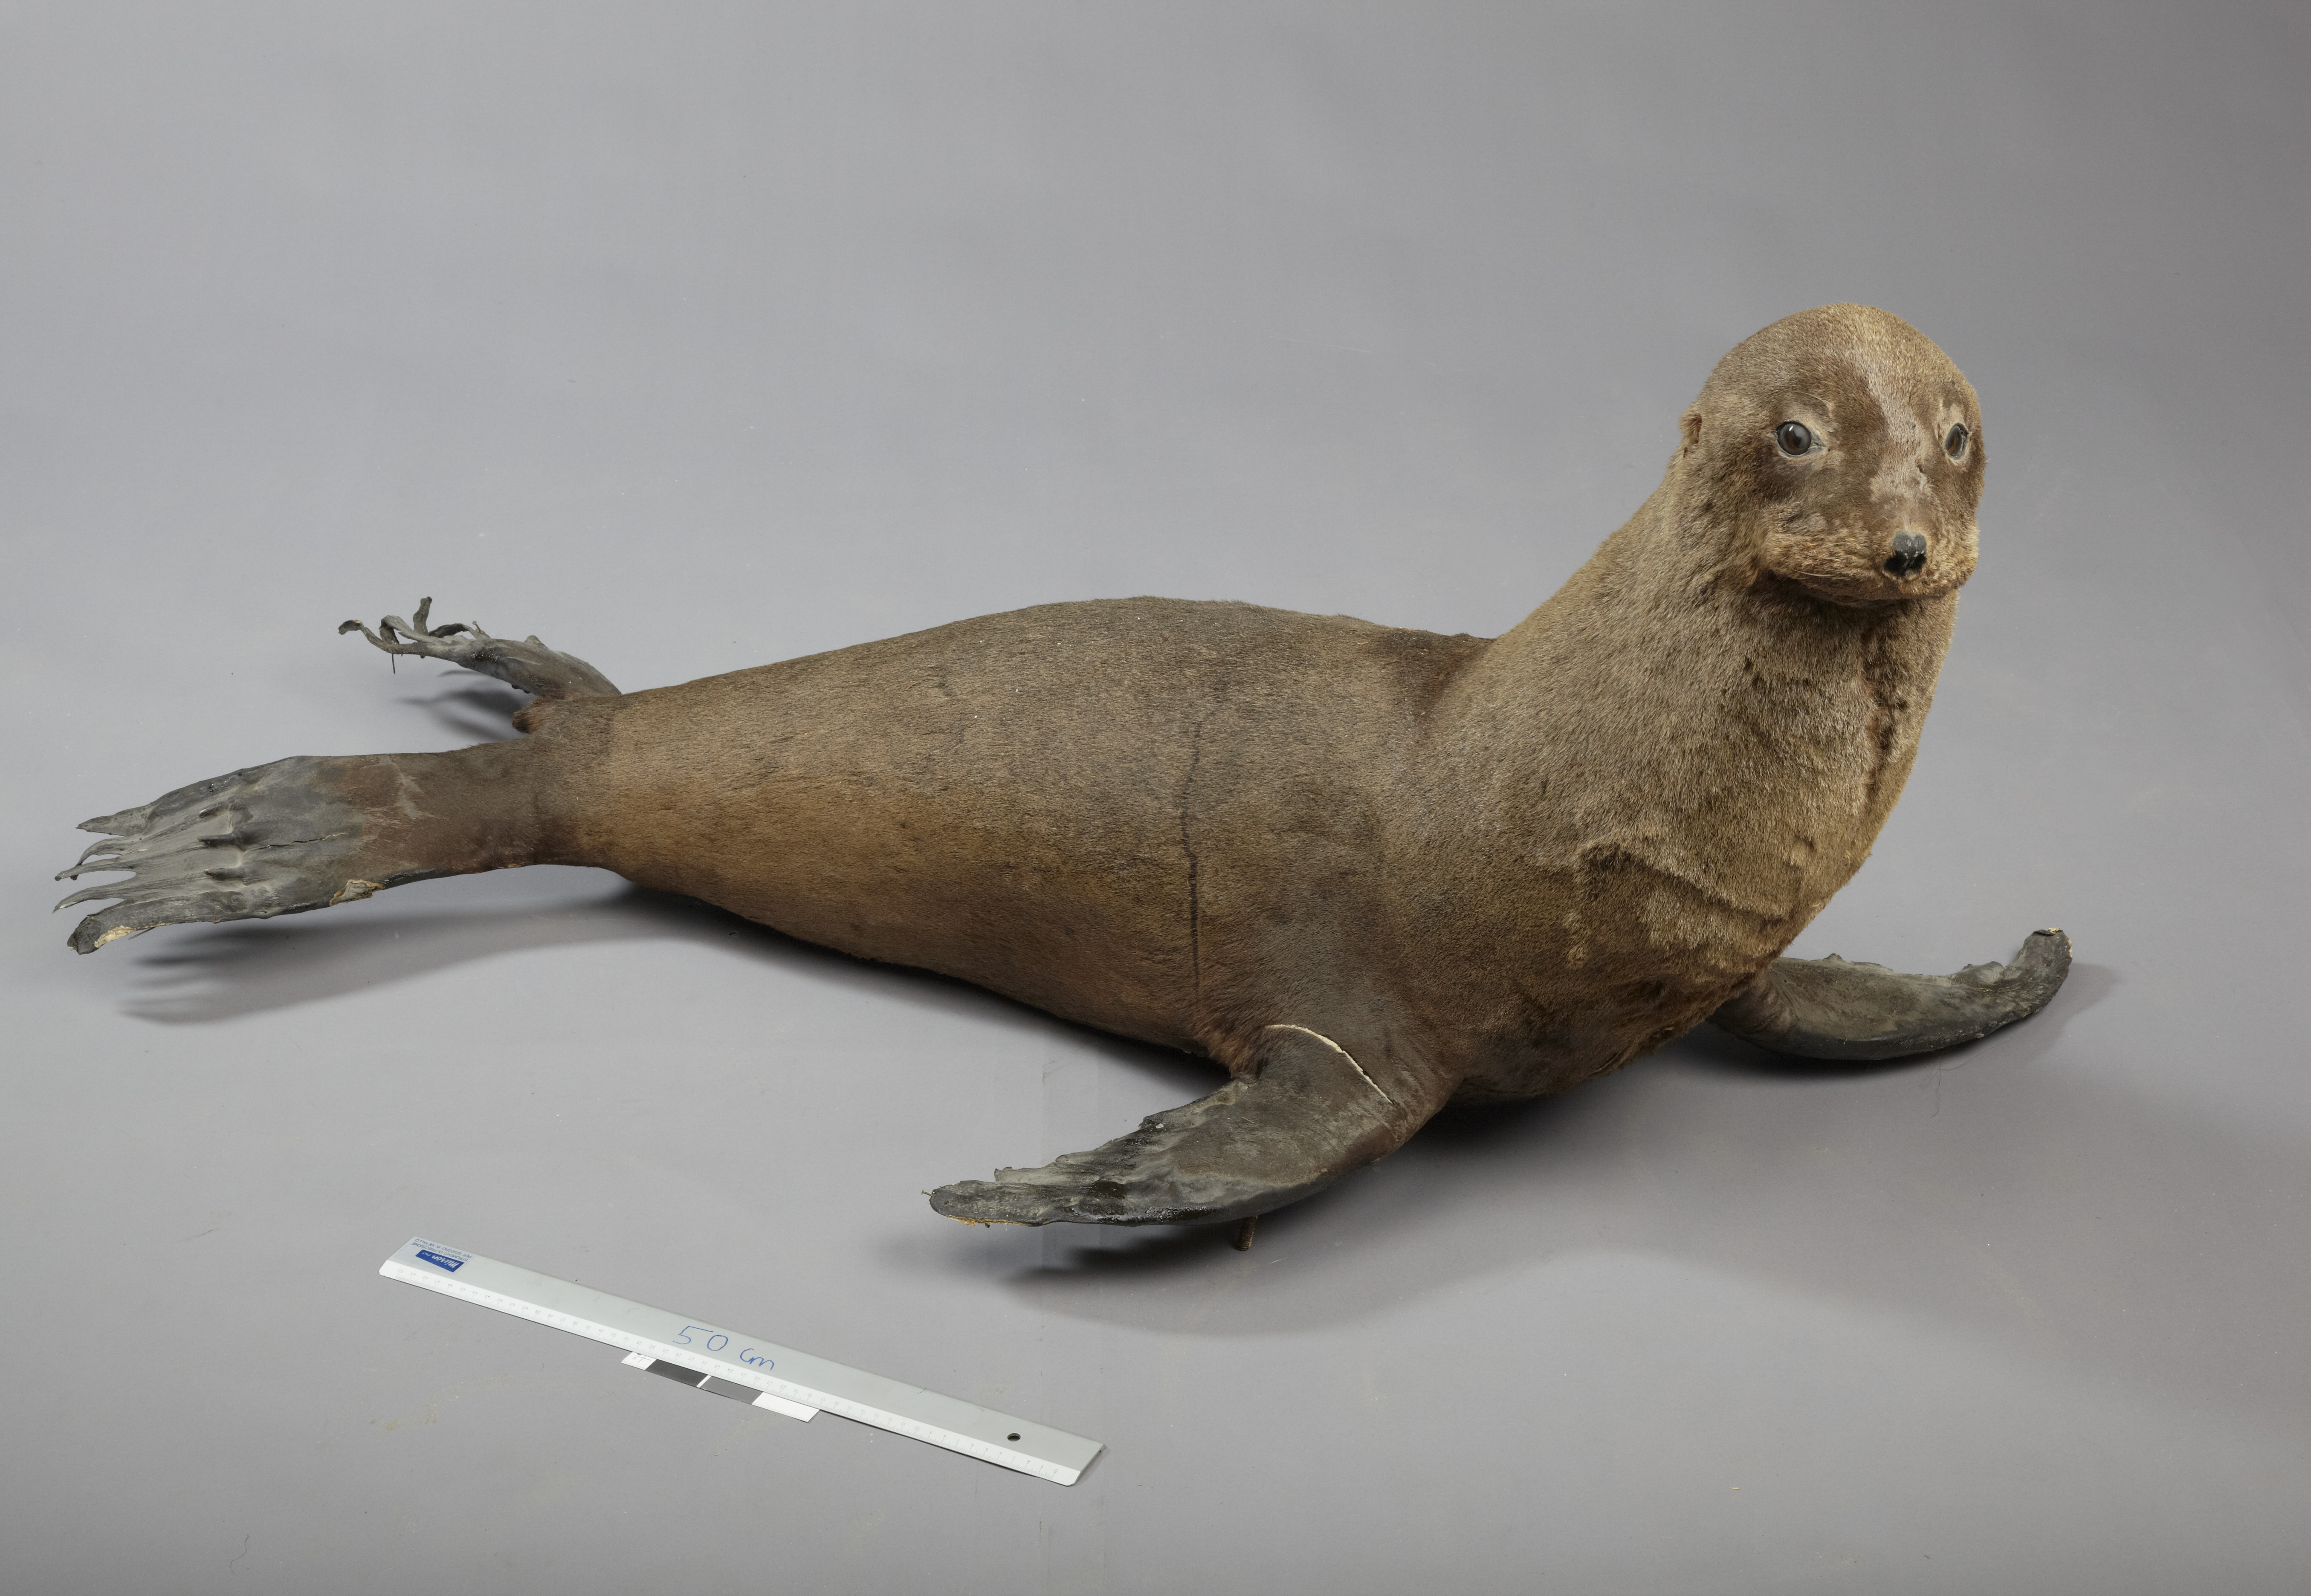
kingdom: Animalia
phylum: Chordata
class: Mammalia
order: Carnivora
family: Otariidae
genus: Arctocephalus
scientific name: Arctocephalus pusillus
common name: Brown fur seal
